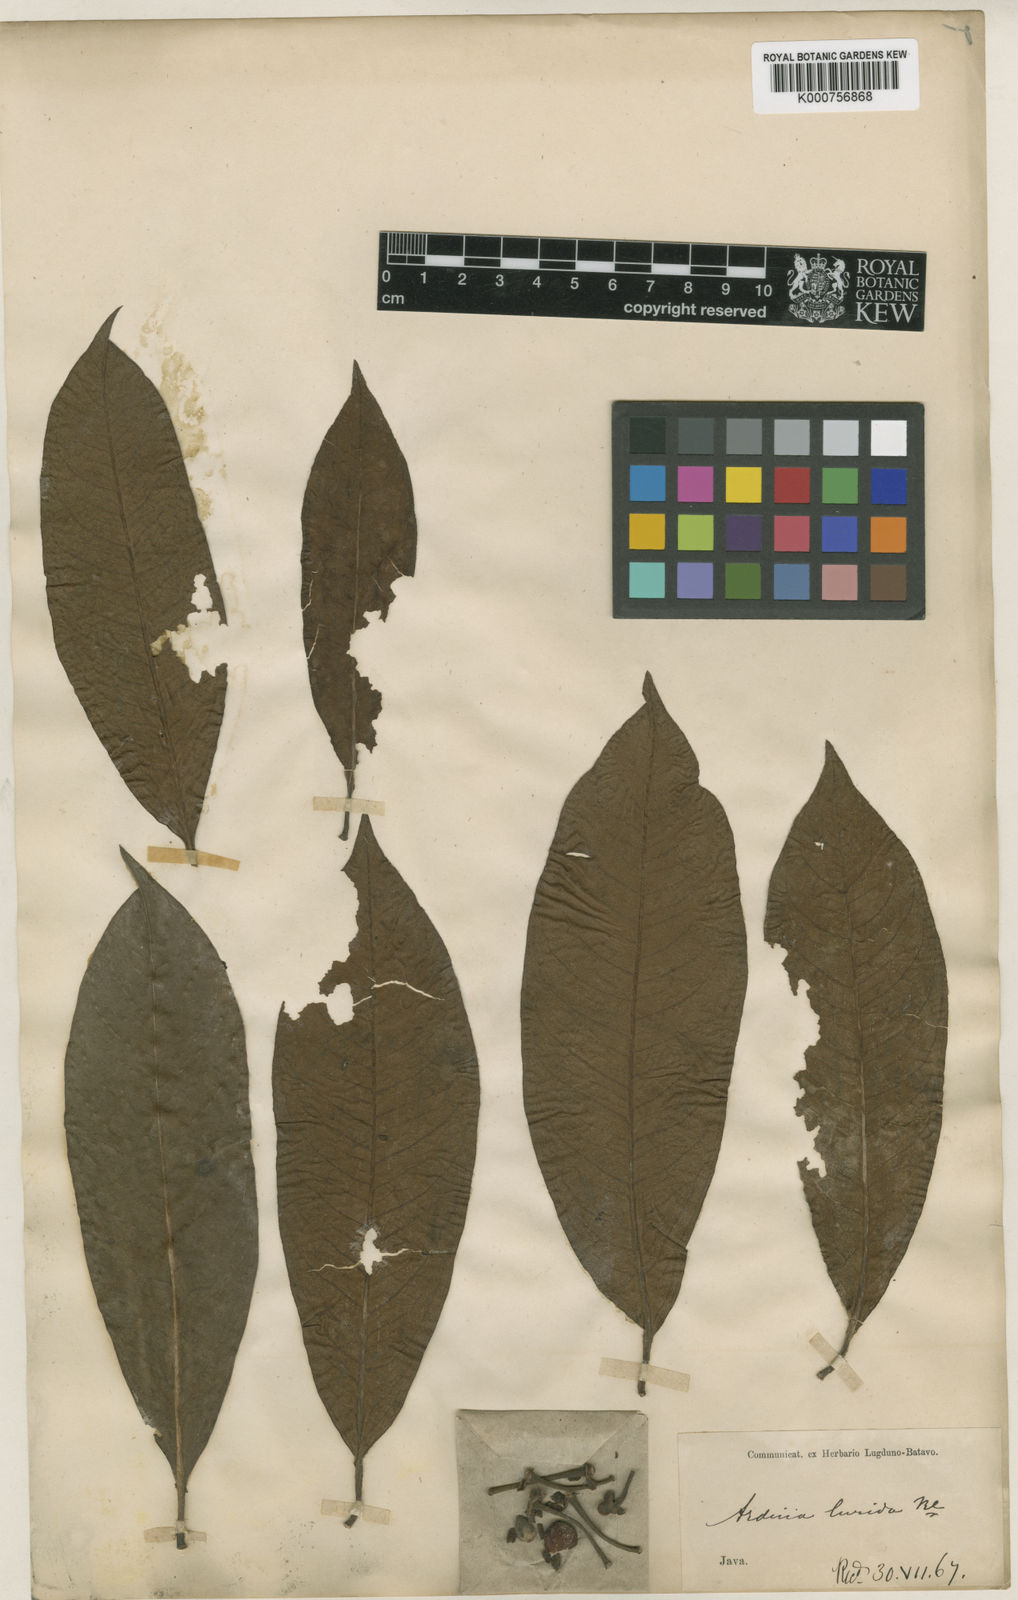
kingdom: Plantae
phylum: Tracheophyta
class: Magnoliopsida
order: Ericales
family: Primulaceae
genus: Ardisia
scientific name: Ardisia lucida
